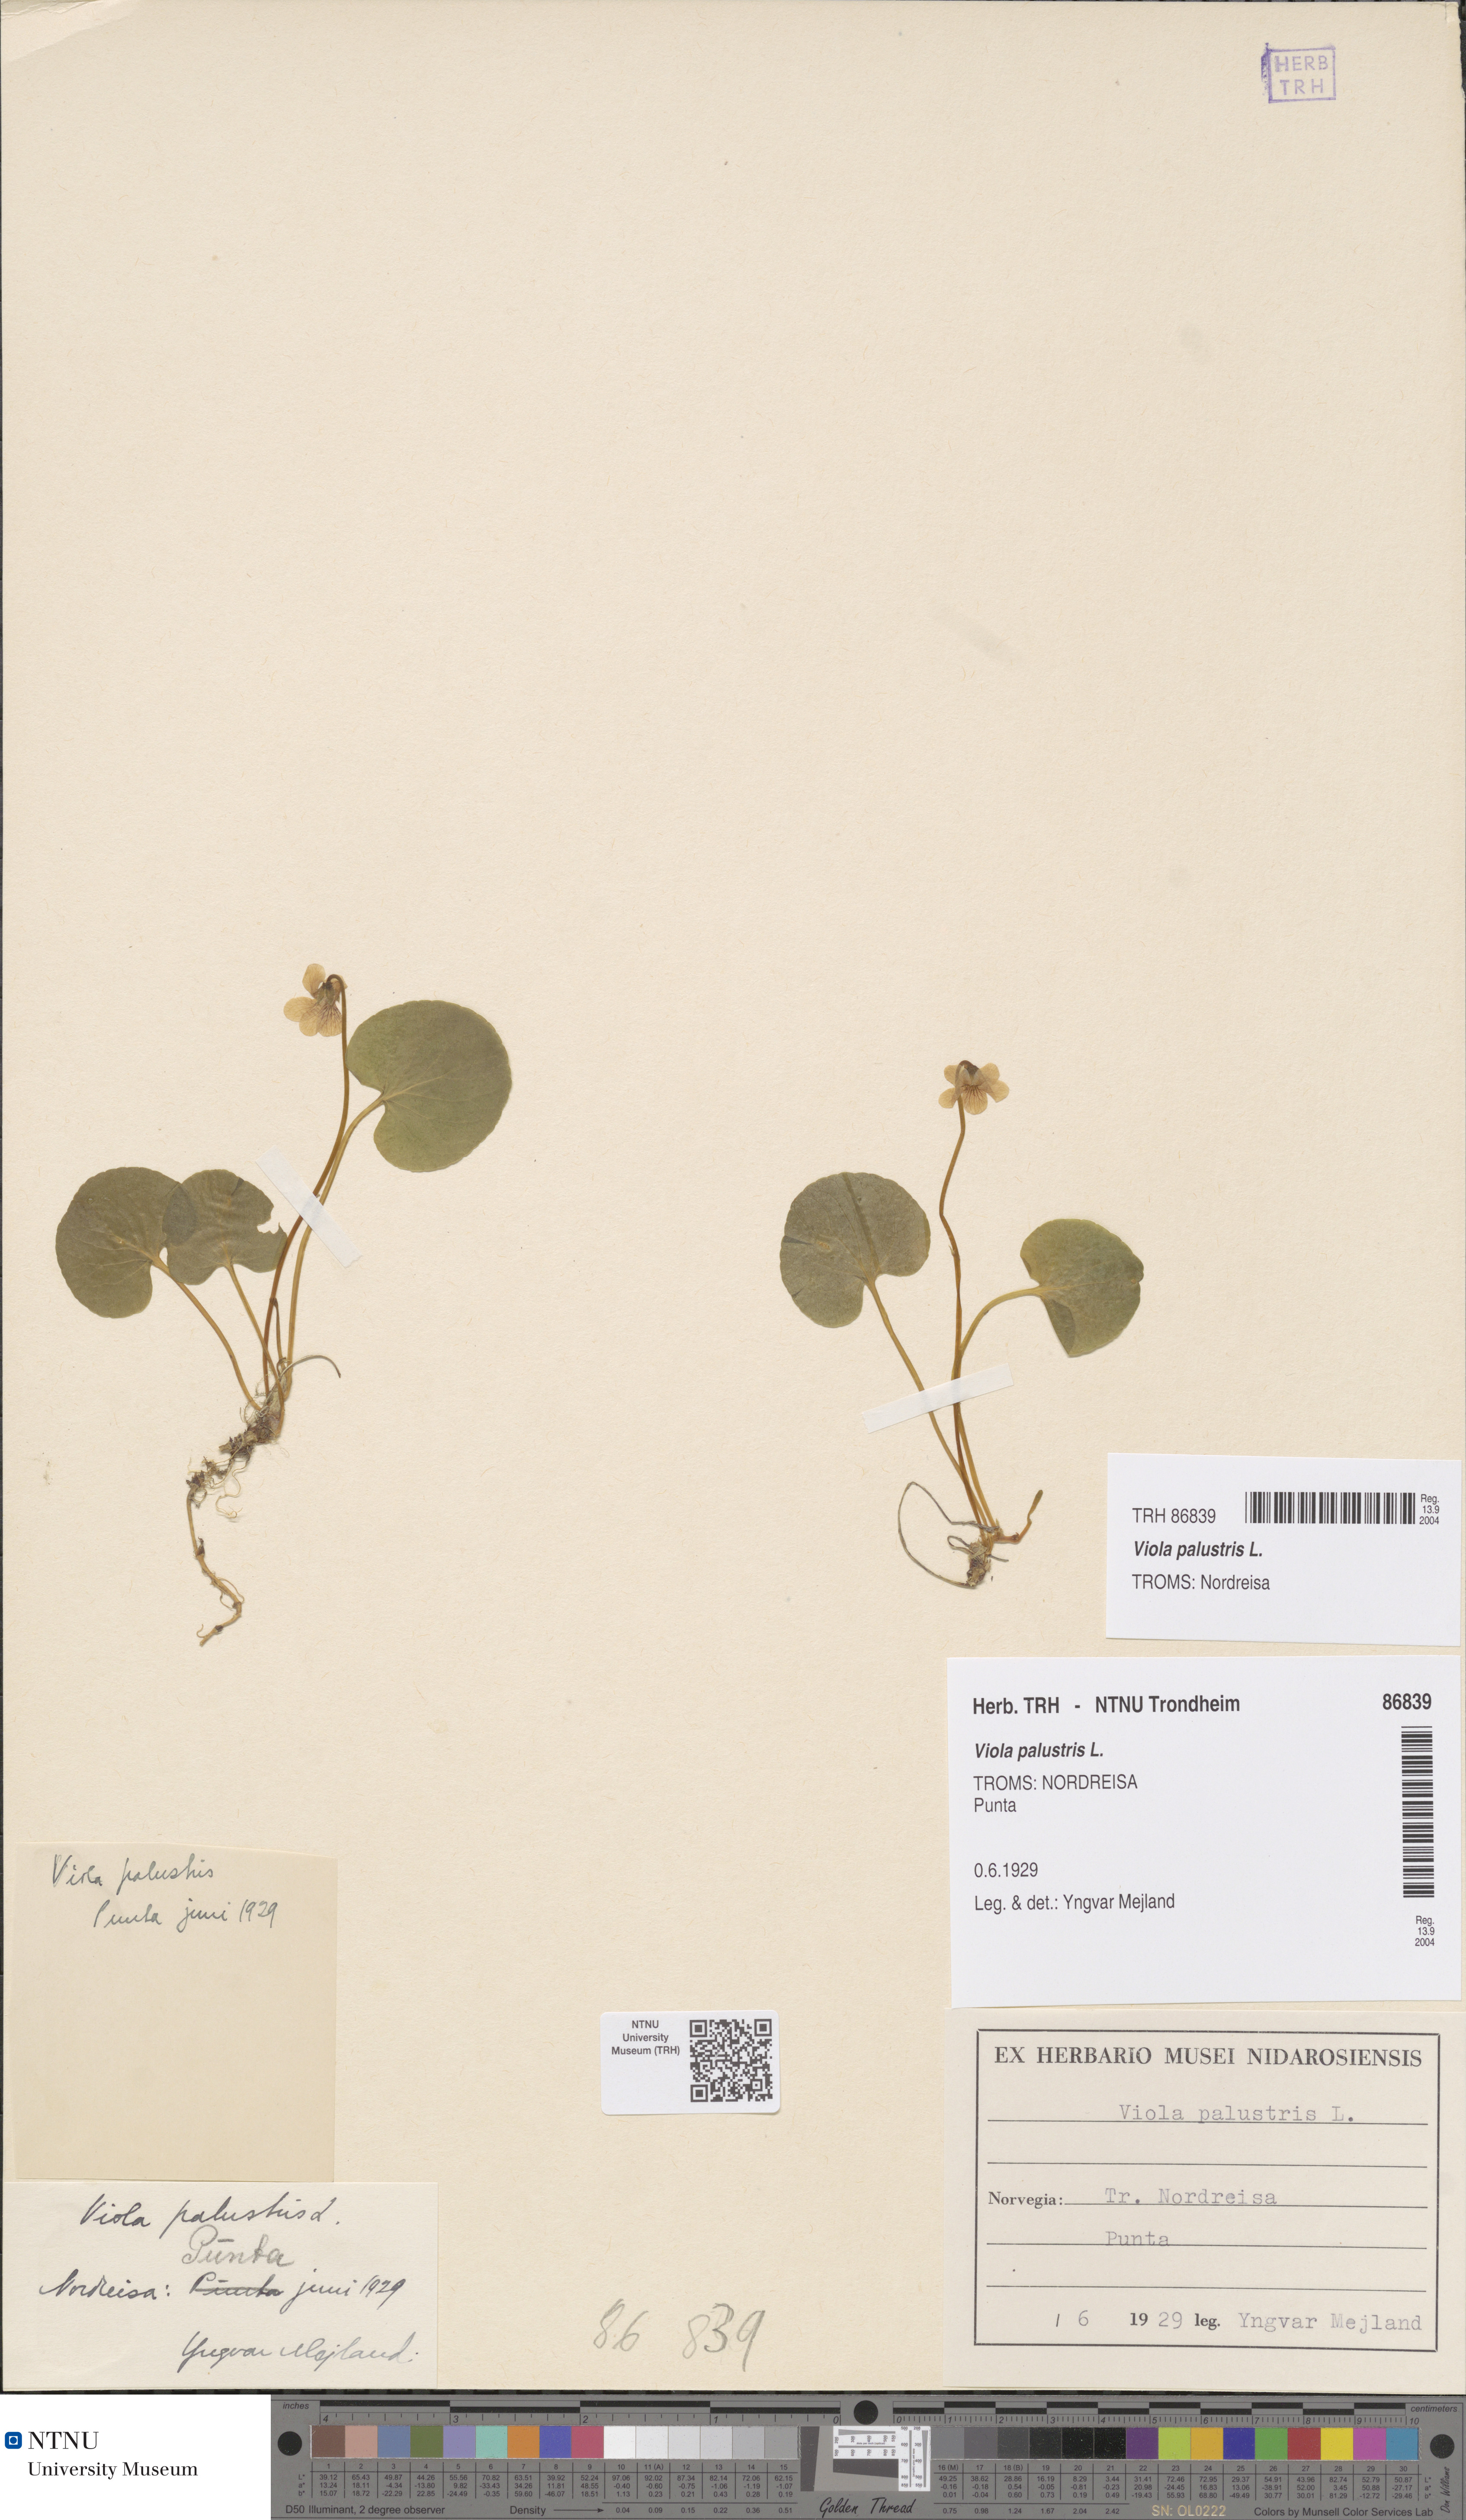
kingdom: Plantae
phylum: Tracheophyta
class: Magnoliopsida
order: Malpighiales
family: Violaceae
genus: Viola
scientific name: Viola palustris
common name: Marsh violet
